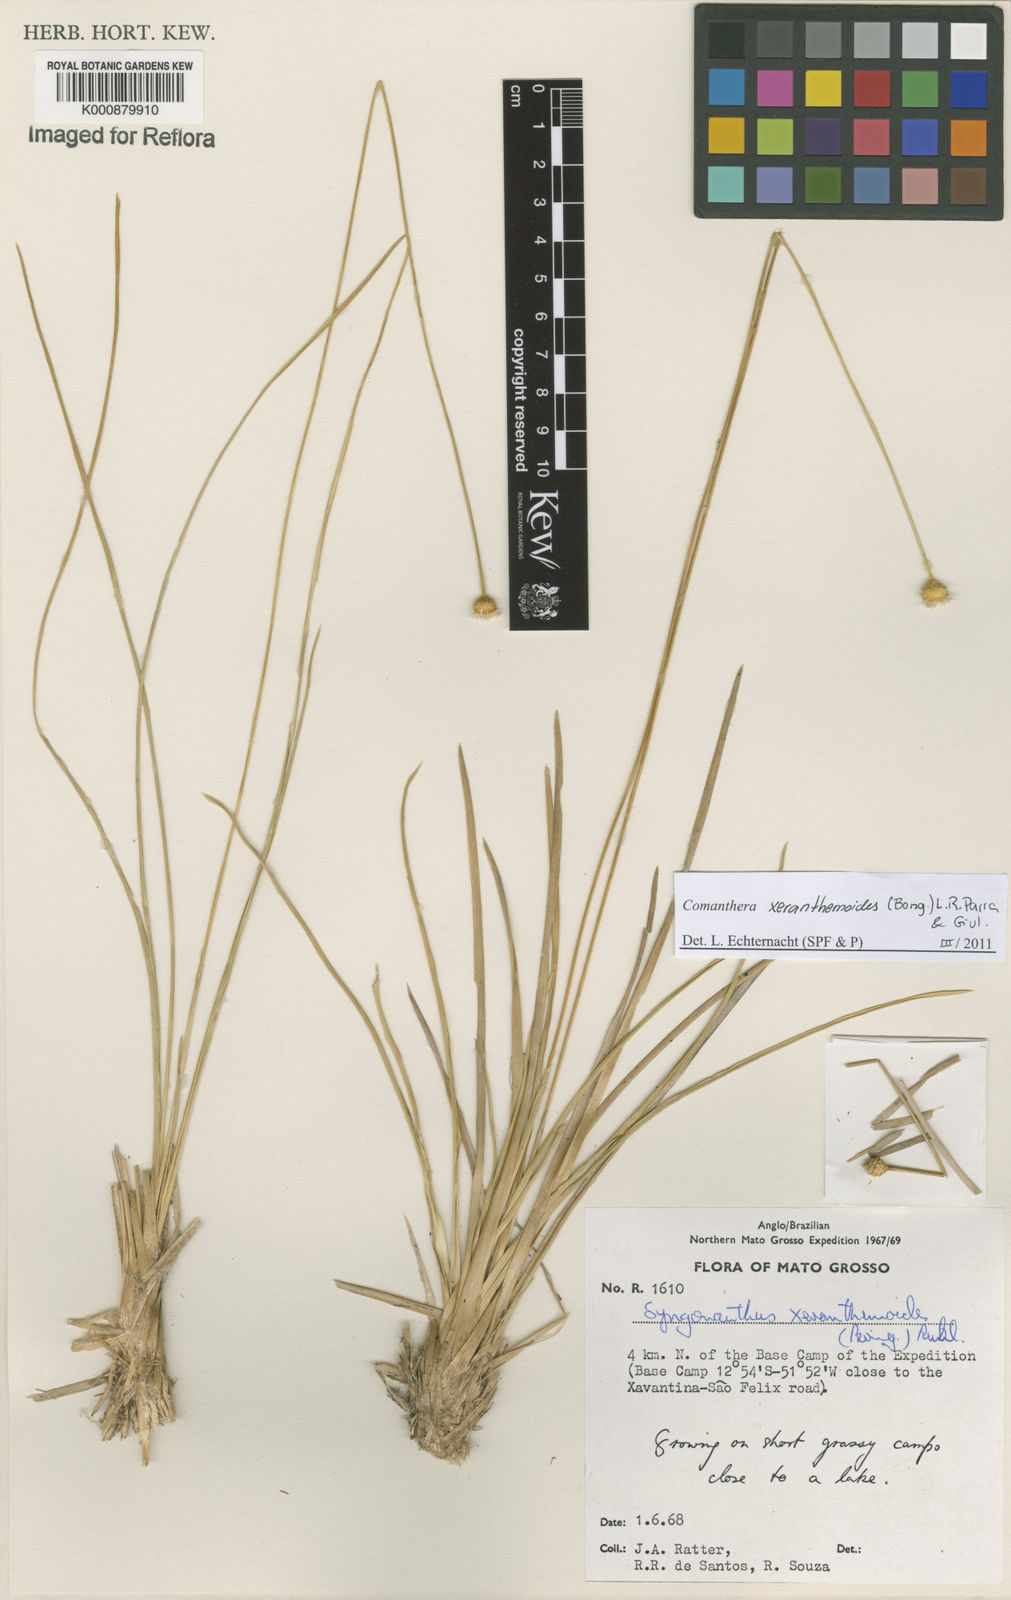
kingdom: Plantae
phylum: Tracheophyta
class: Liliopsida
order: Poales
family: Eriocaulaceae
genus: Comanthera
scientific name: Comanthera xeranthemoides
